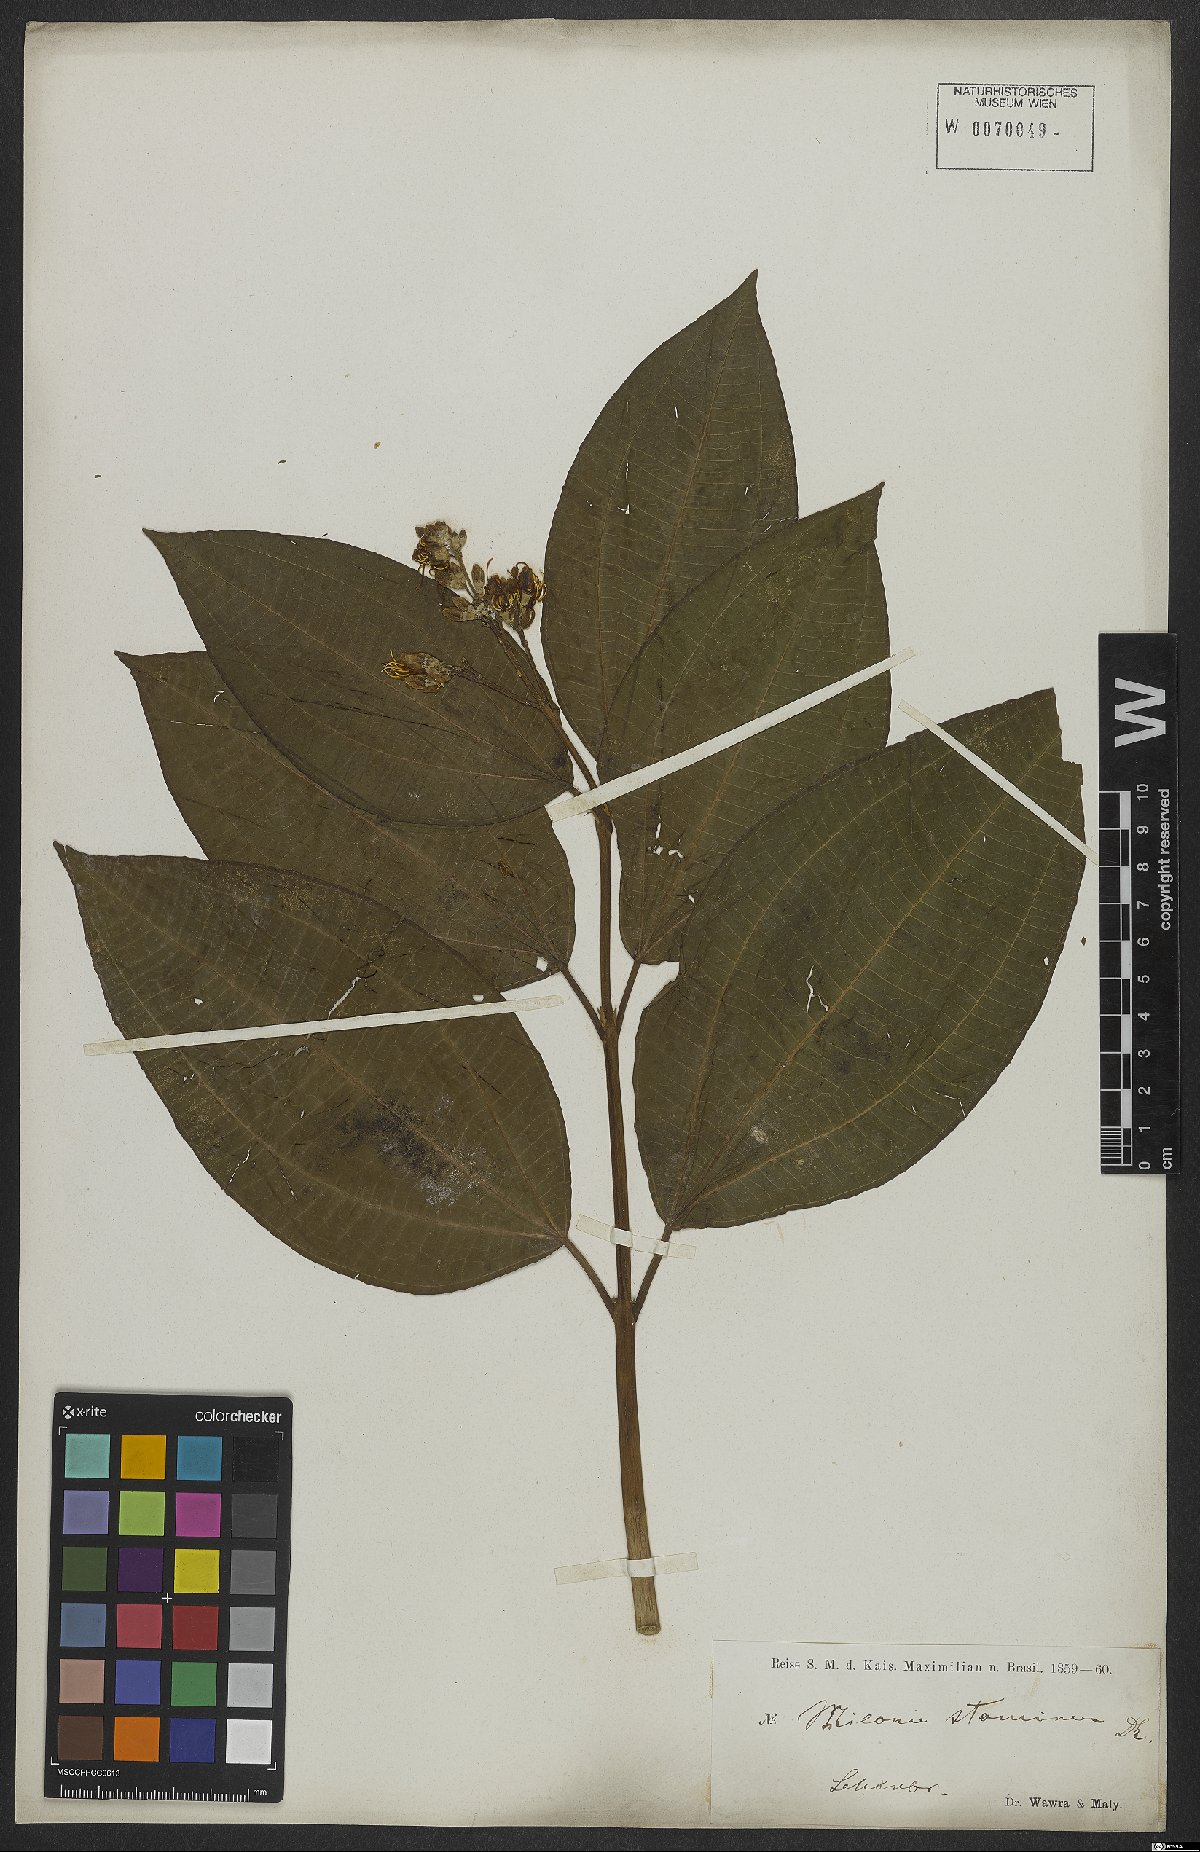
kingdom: Plantae
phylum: Tracheophyta
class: Magnoliopsida
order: Myrtales
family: Melastomataceae
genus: Miconia
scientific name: Miconia staminea
